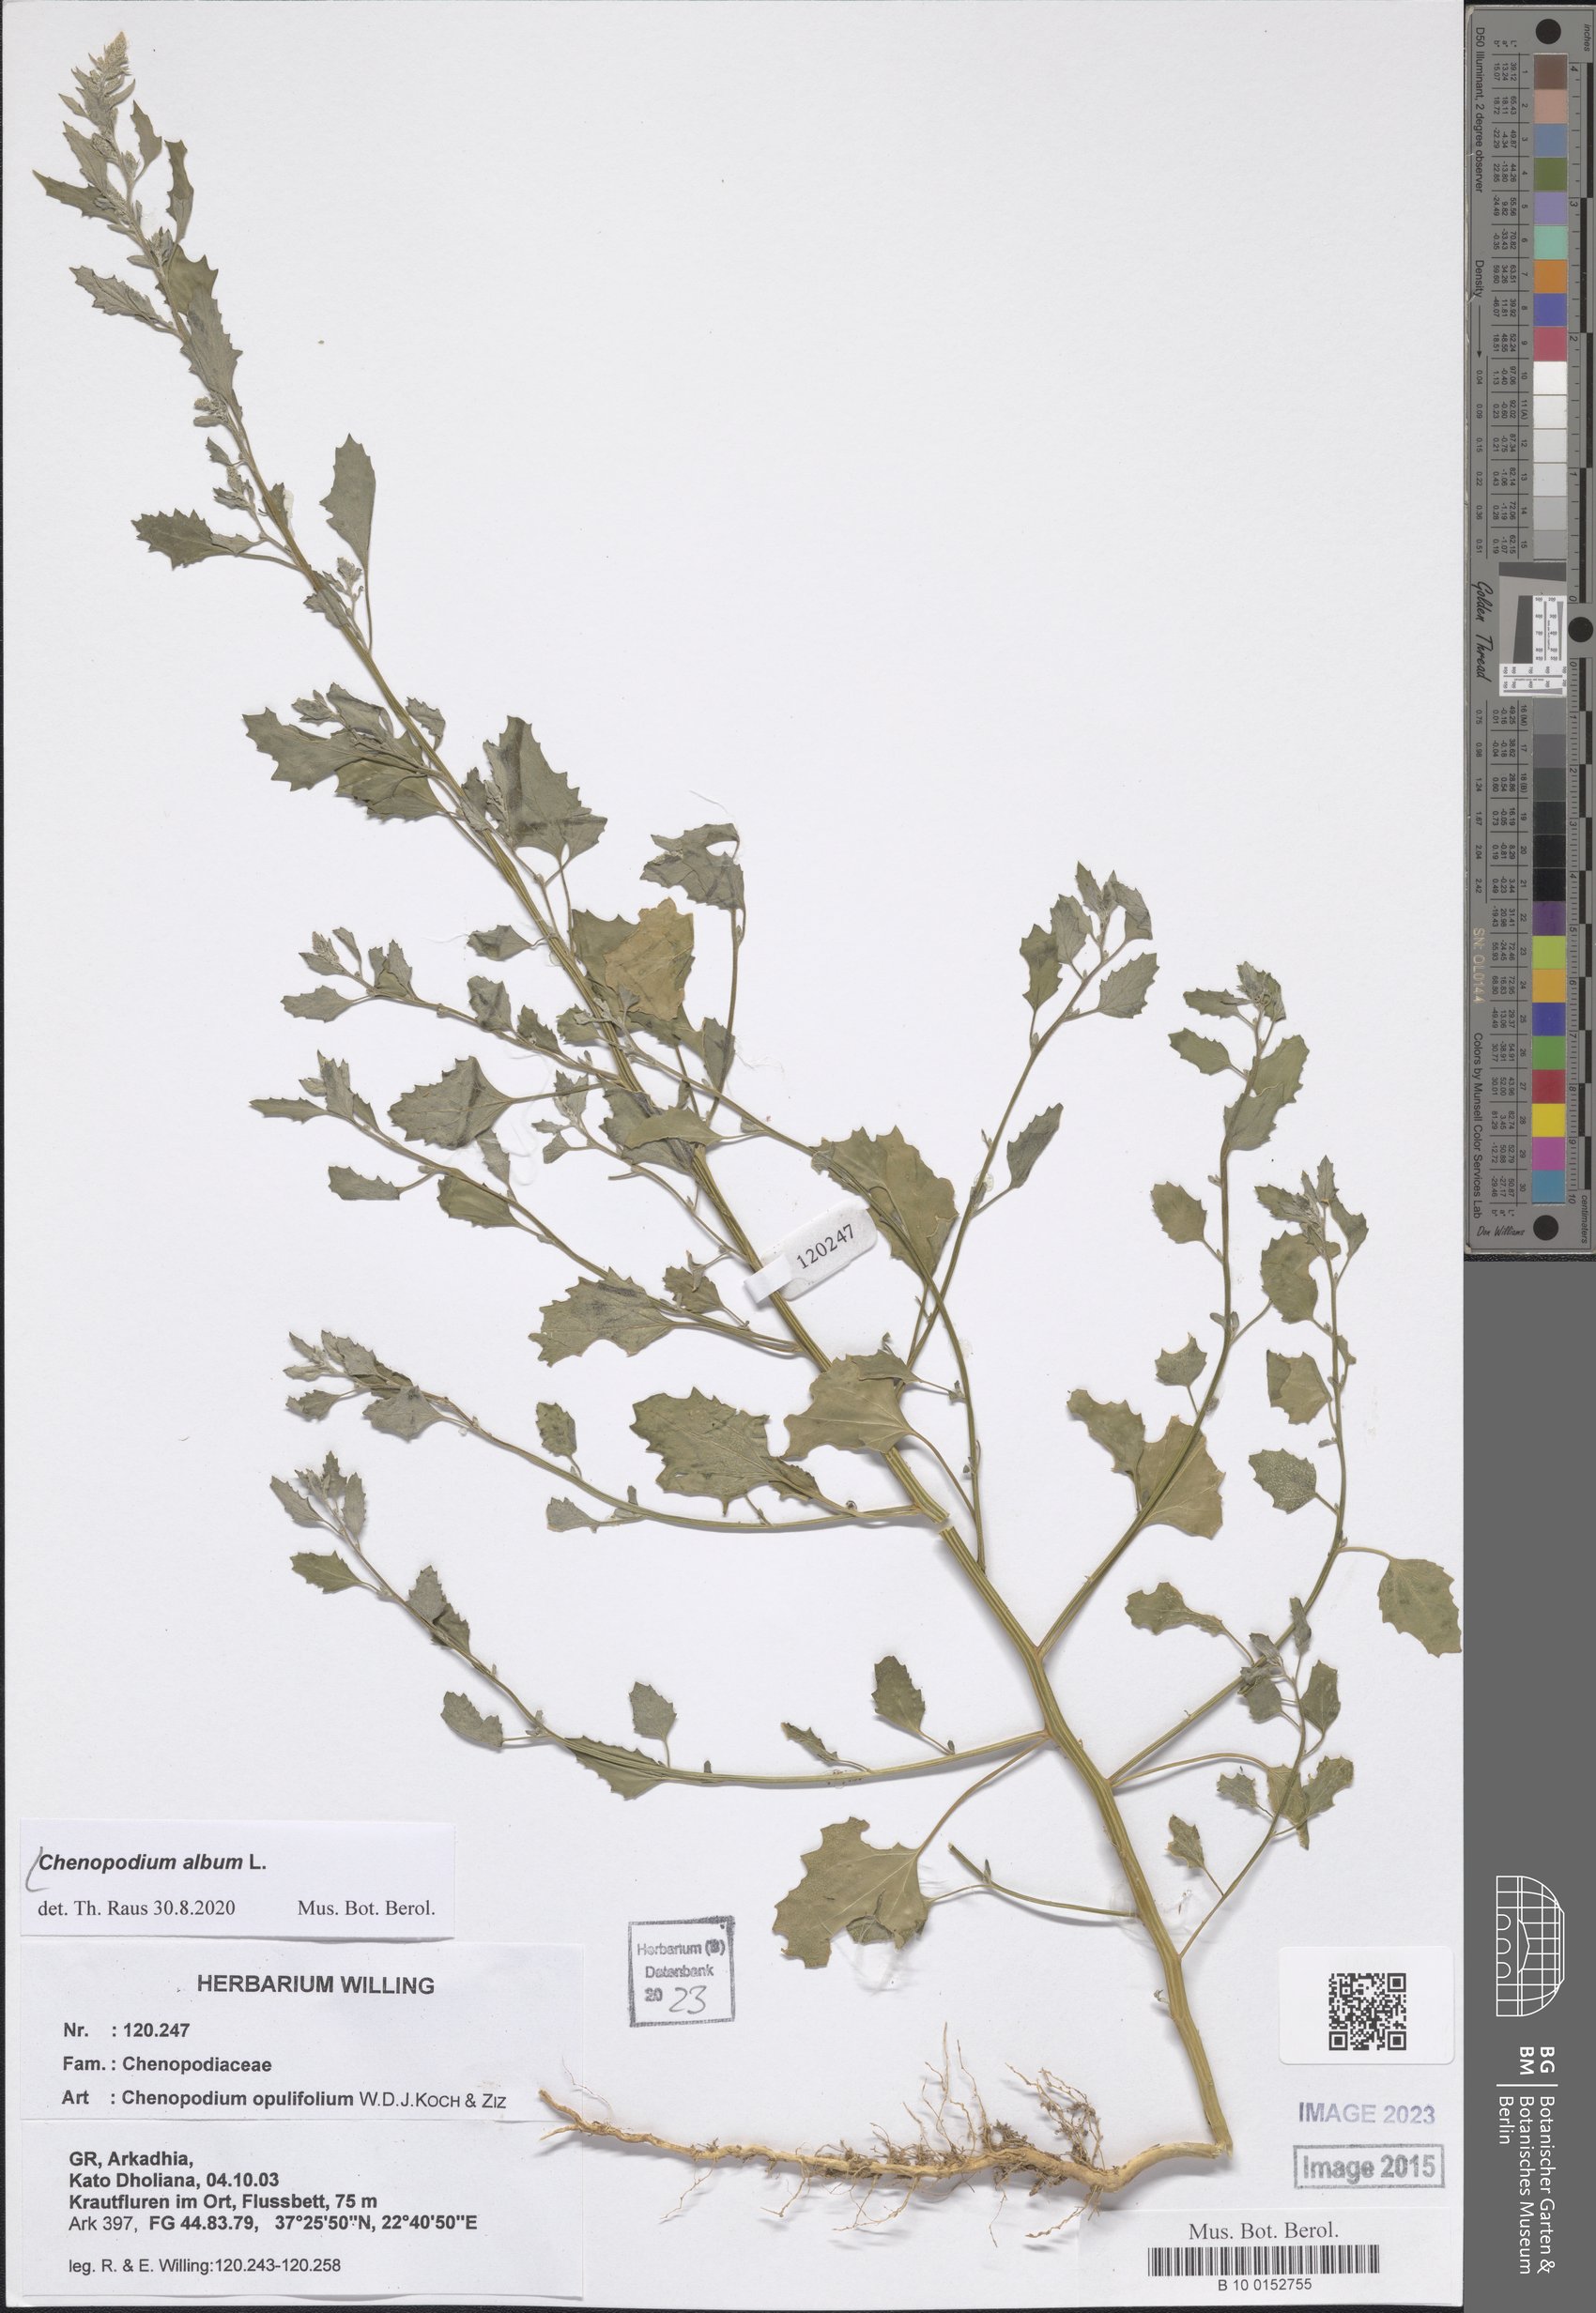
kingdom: Plantae
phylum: Tracheophyta
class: Magnoliopsida
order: Caryophyllales
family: Amaranthaceae
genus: Chenopodium
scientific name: Chenopodium album
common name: Fat-hen
